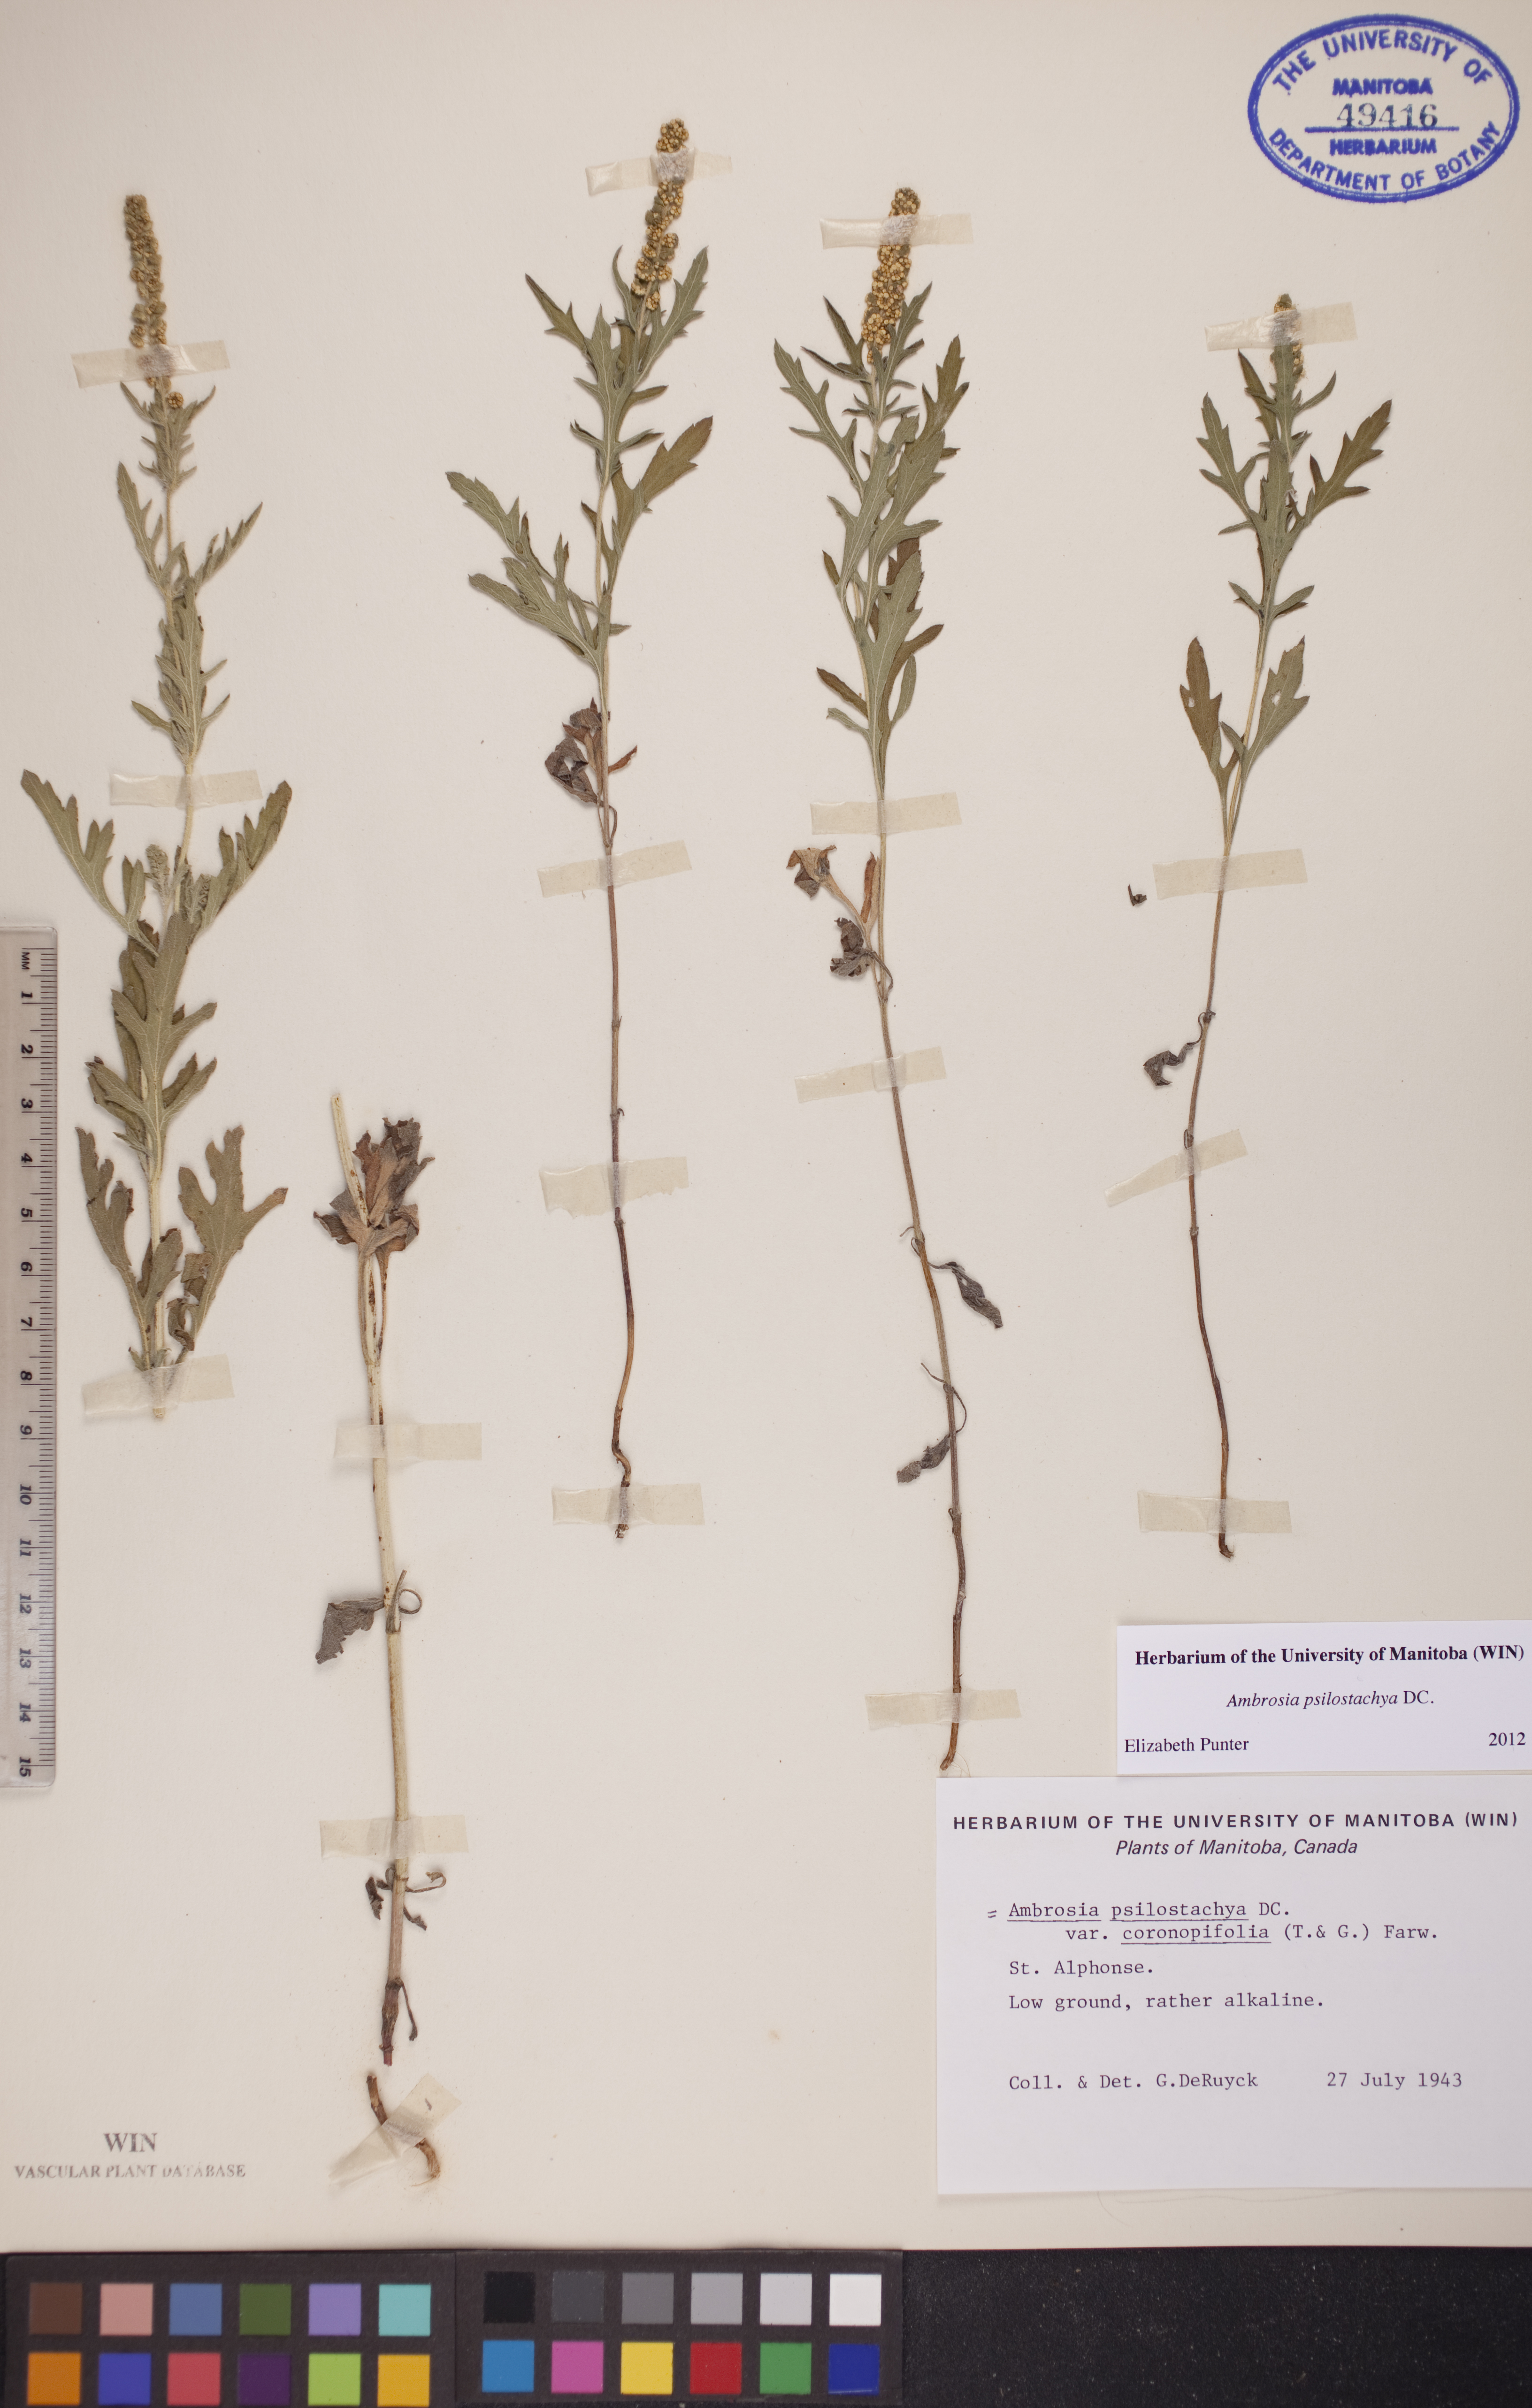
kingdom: Plantae
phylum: Tracheophyta
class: Magnoliopsida
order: Asterales
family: Asteraceae
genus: Ambrosia
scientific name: Ambrosia psilostachya
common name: Perennial ragweed
